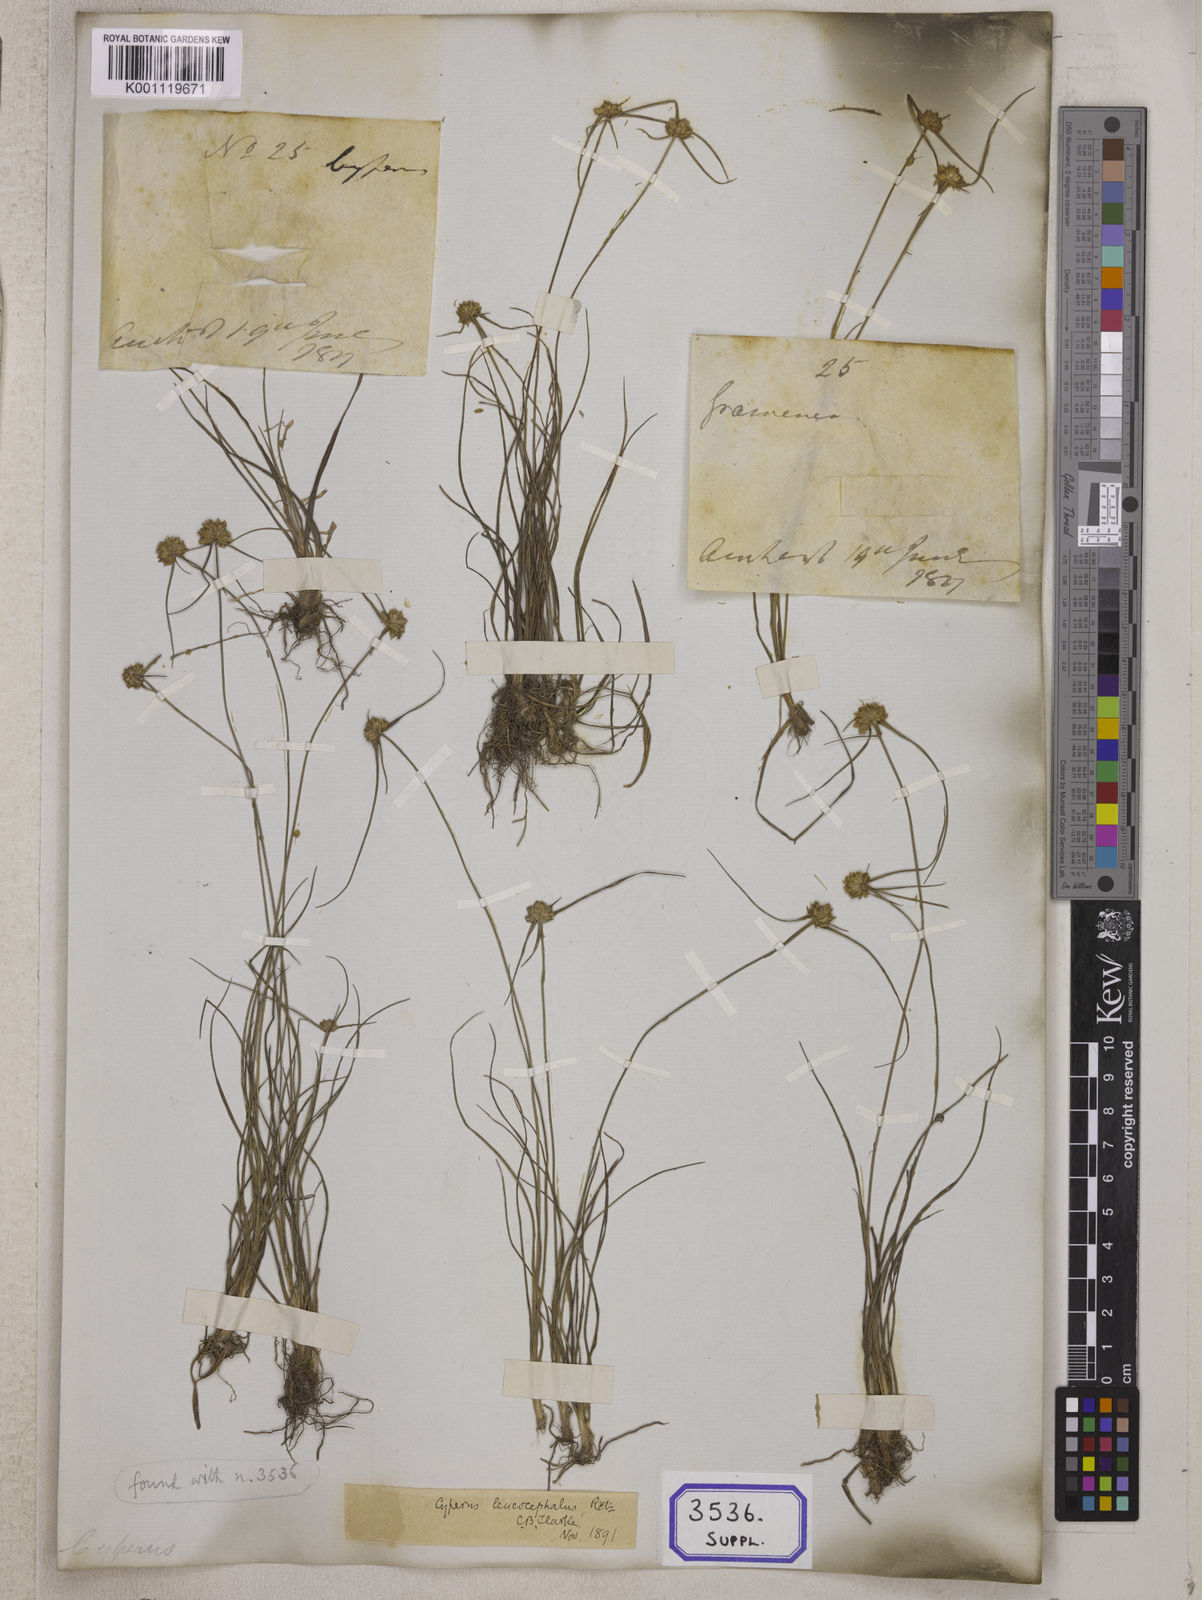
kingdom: Plantae
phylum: Tracheophyta
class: Liliopsida
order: Poales
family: Cyperaceae
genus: Cyperus
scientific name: Cyperus
